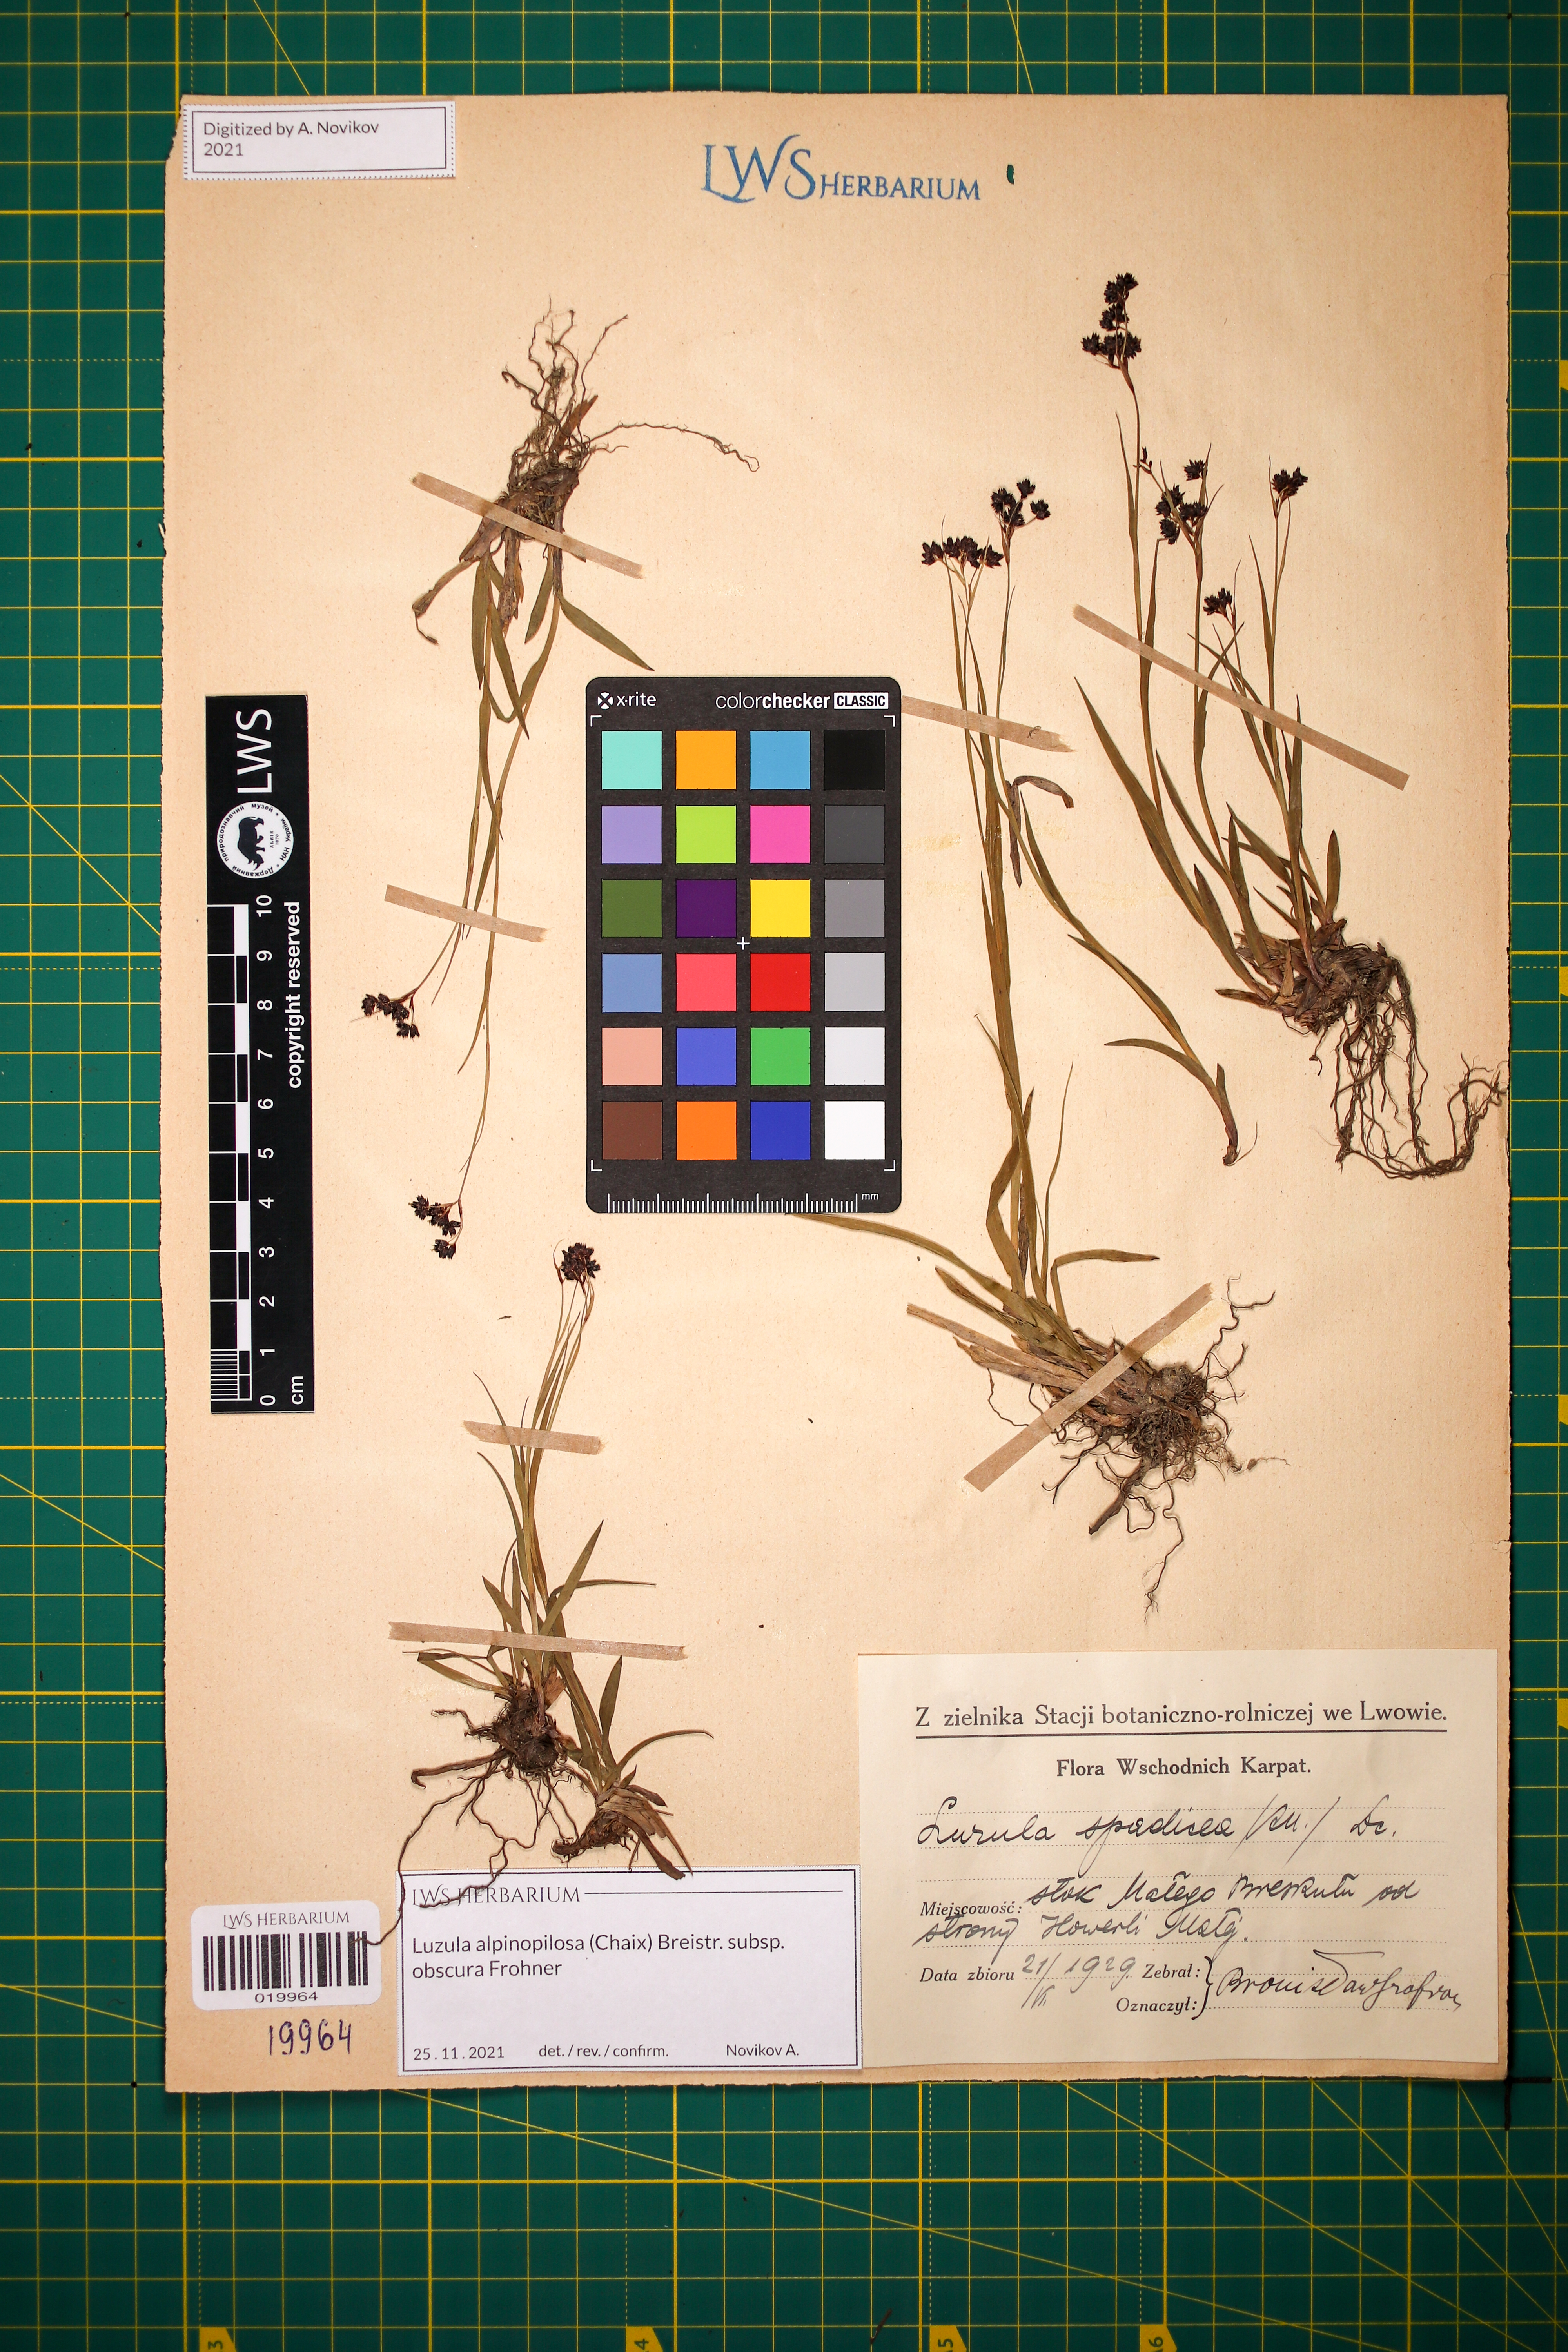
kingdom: Plantae
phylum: Tracheophyta
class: Liliopsida
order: Poales
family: Juncaceae
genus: Luzula
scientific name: Luzula alpinopilosa
